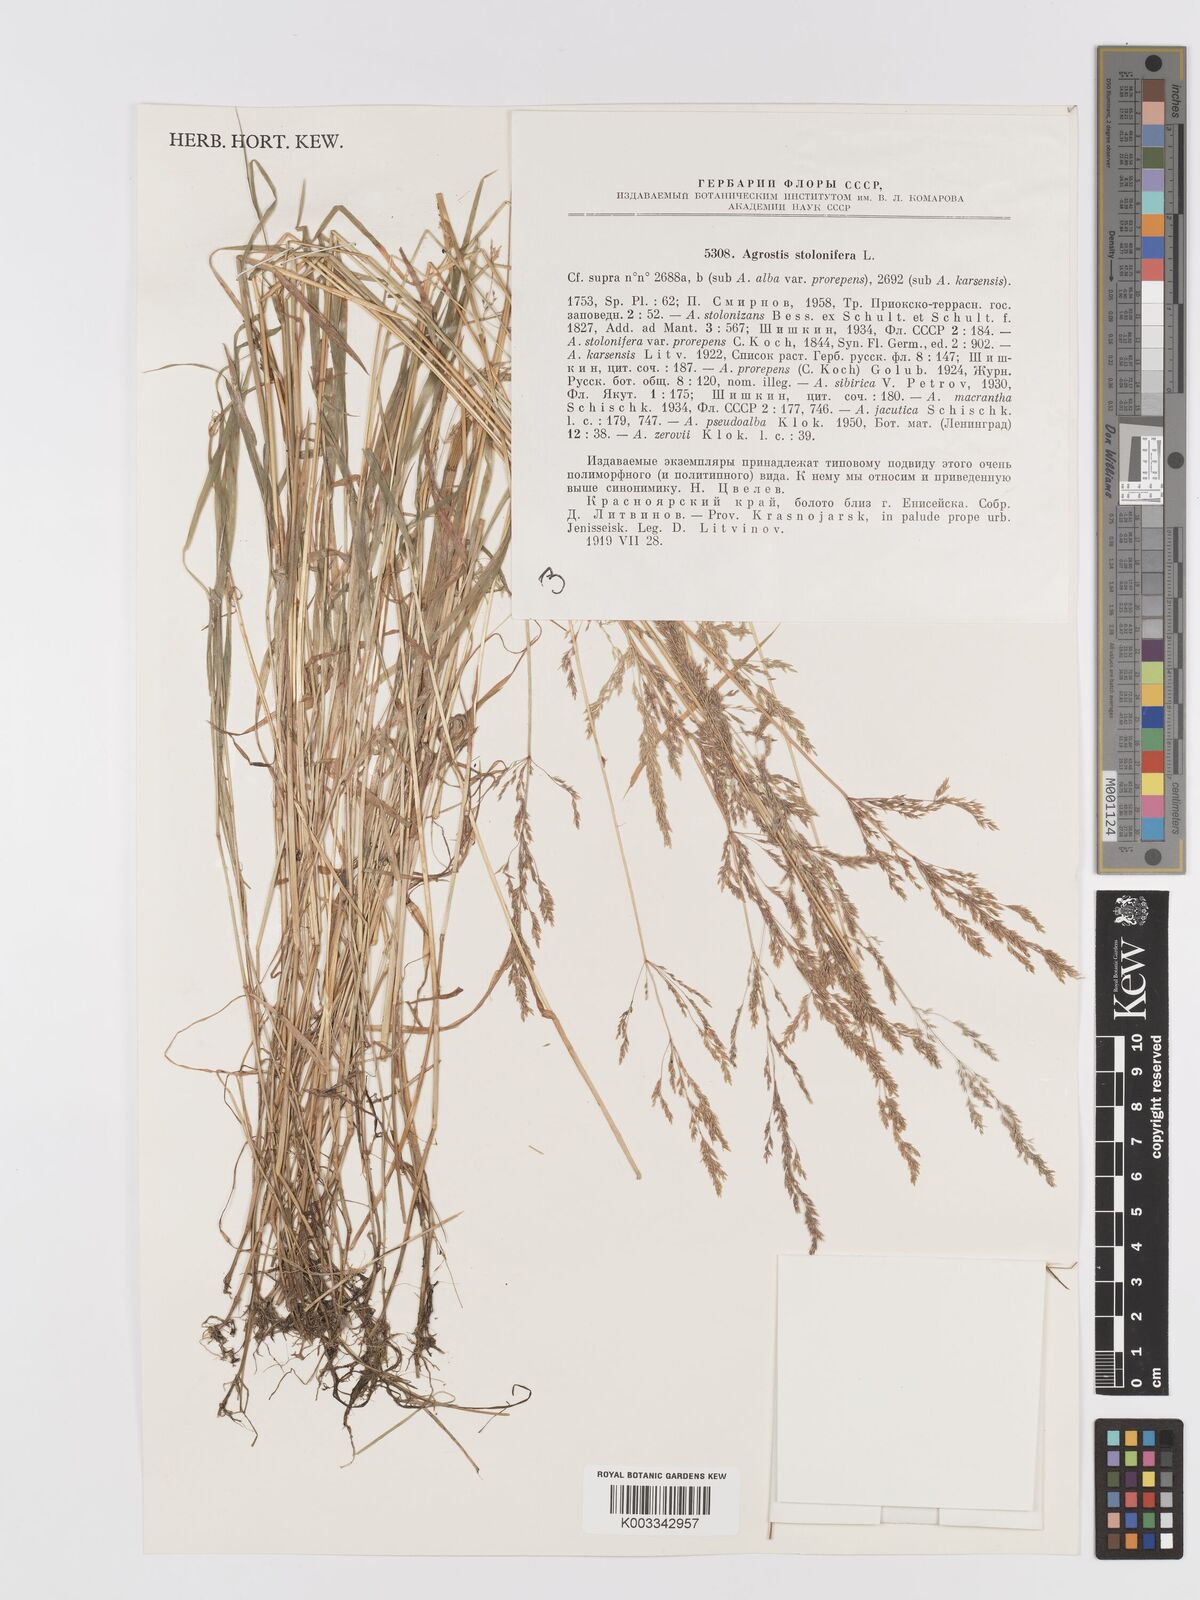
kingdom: Plantae
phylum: Tracheophyta
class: Liliopsida
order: Poales
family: Poaceae
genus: Agrostis
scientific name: Agrostis stolonifera
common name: Creeping bentgrass
